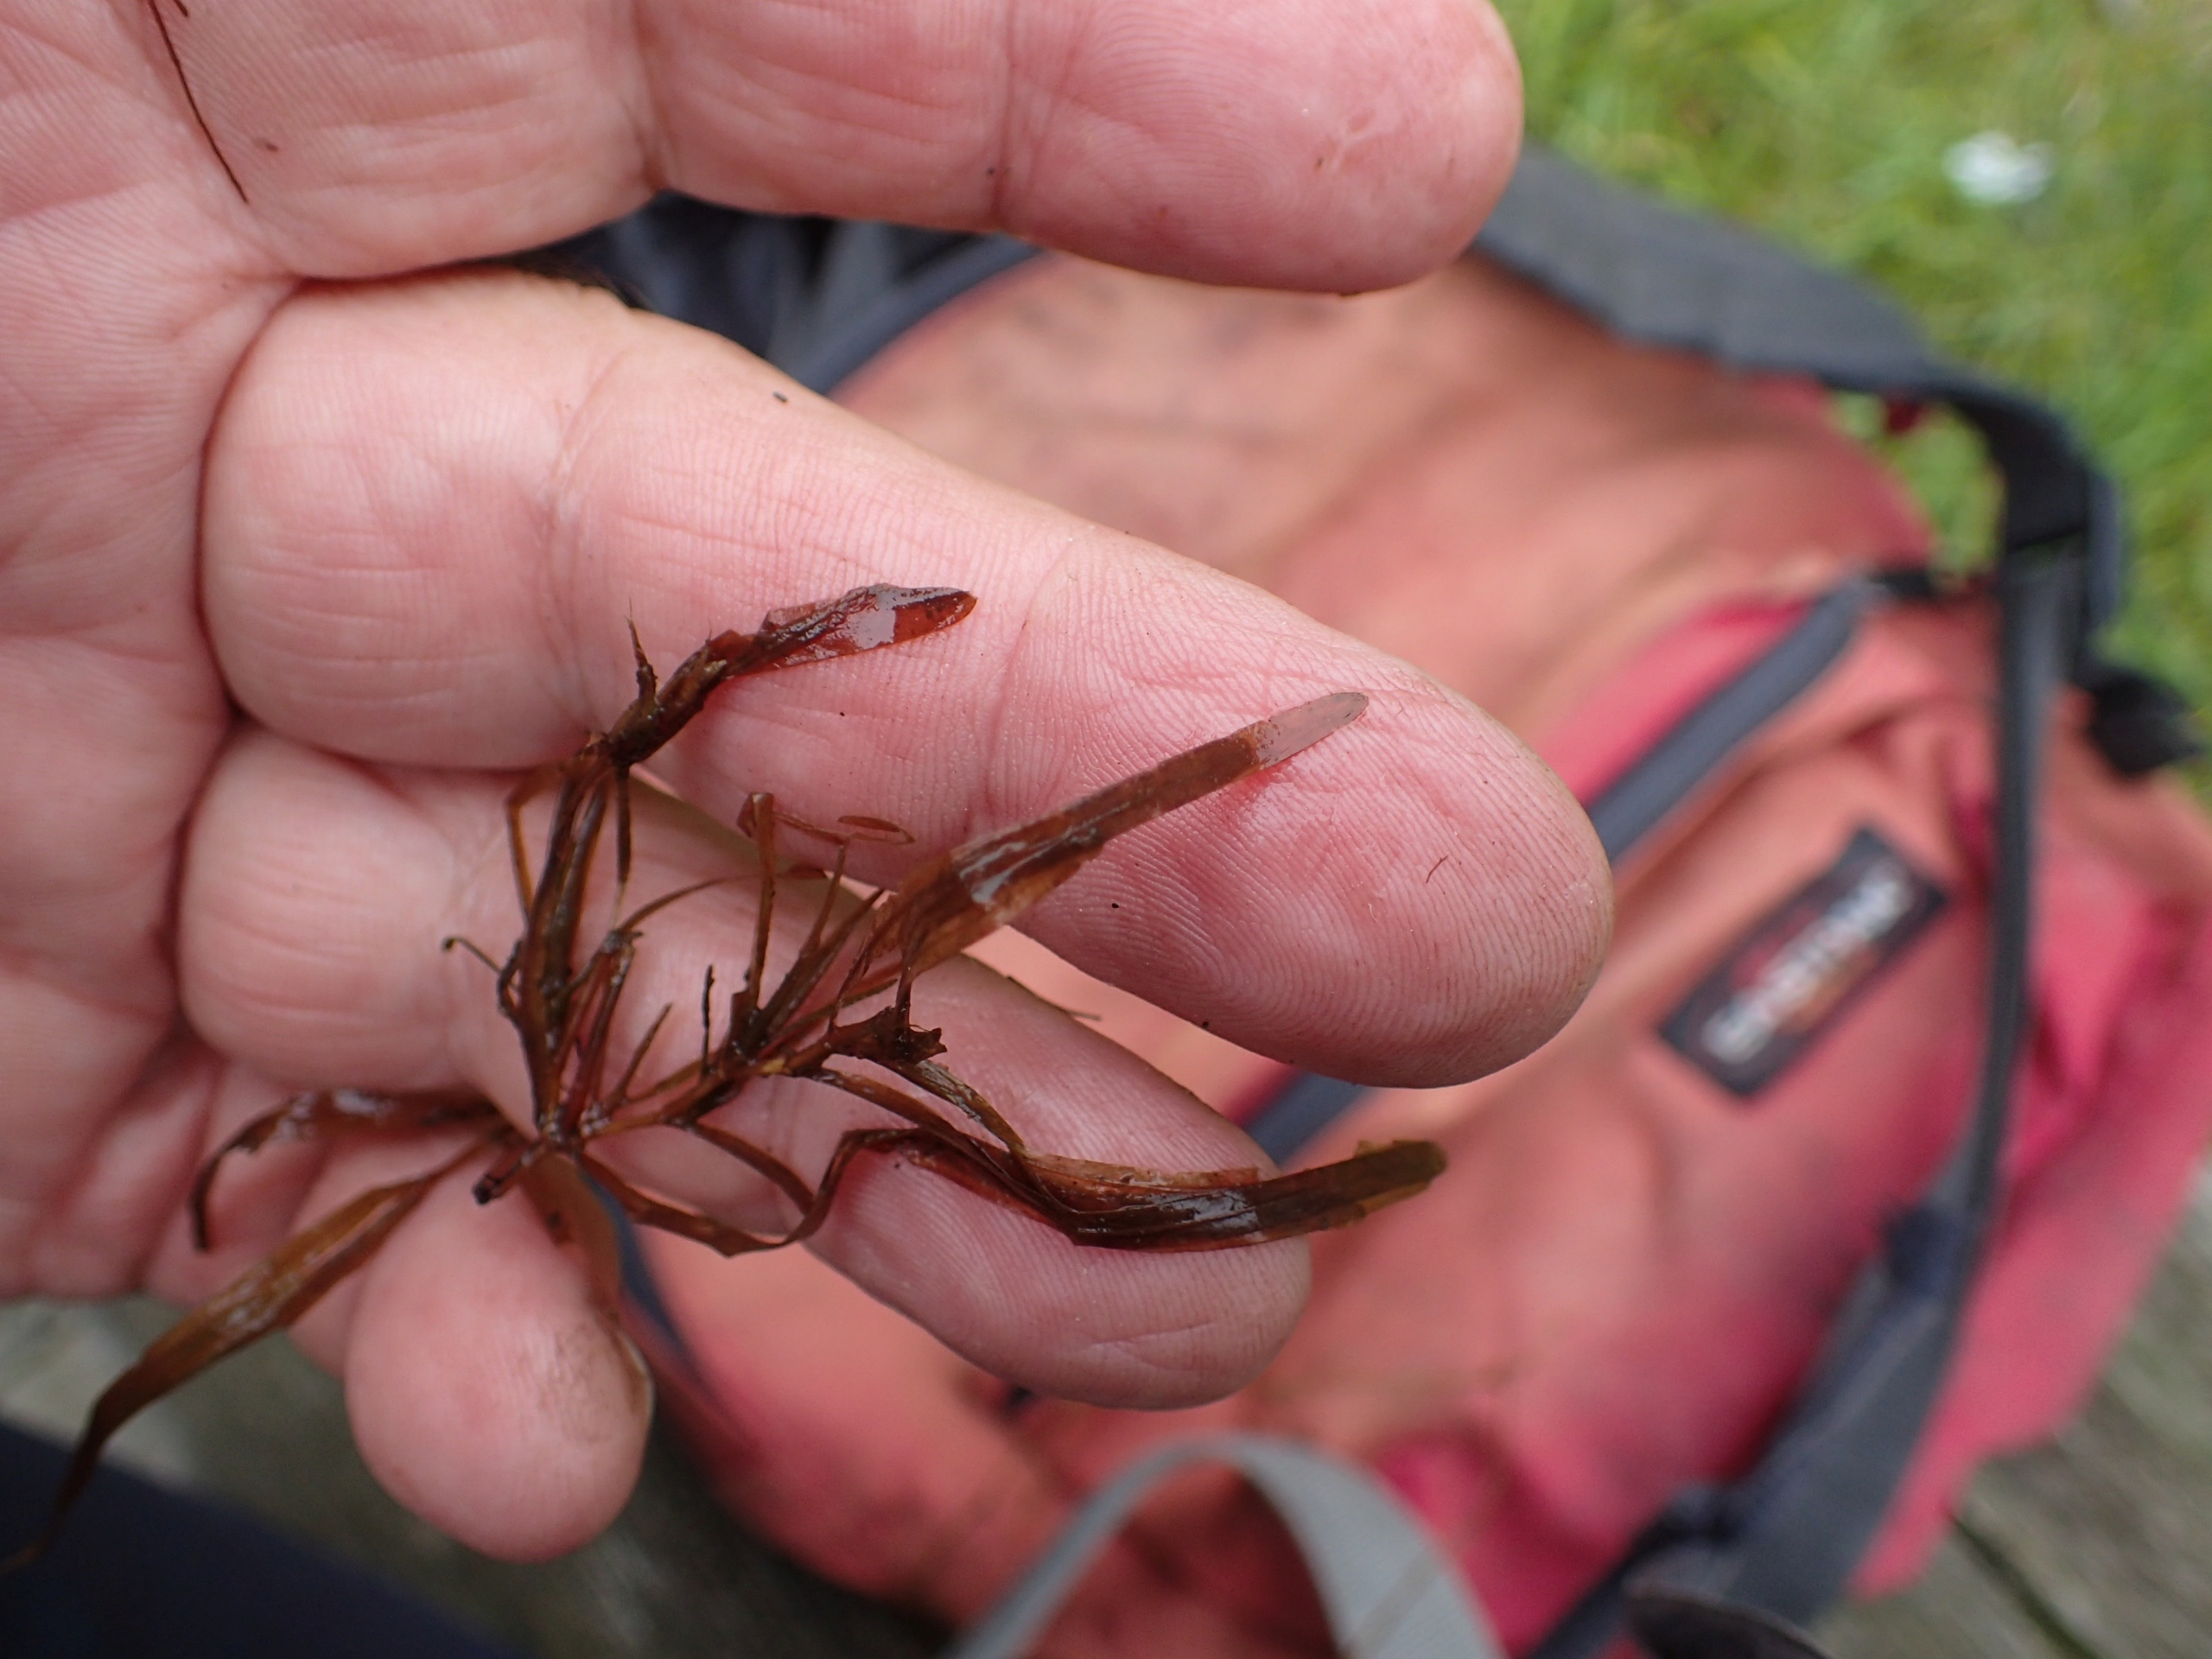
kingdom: Plantae
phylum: Tracheophyta
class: Liliopsida
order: Alismatales
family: Potamogetonaceae
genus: Potamogeton
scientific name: Potamogeton obtusifolius
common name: Butbladet vandaks
